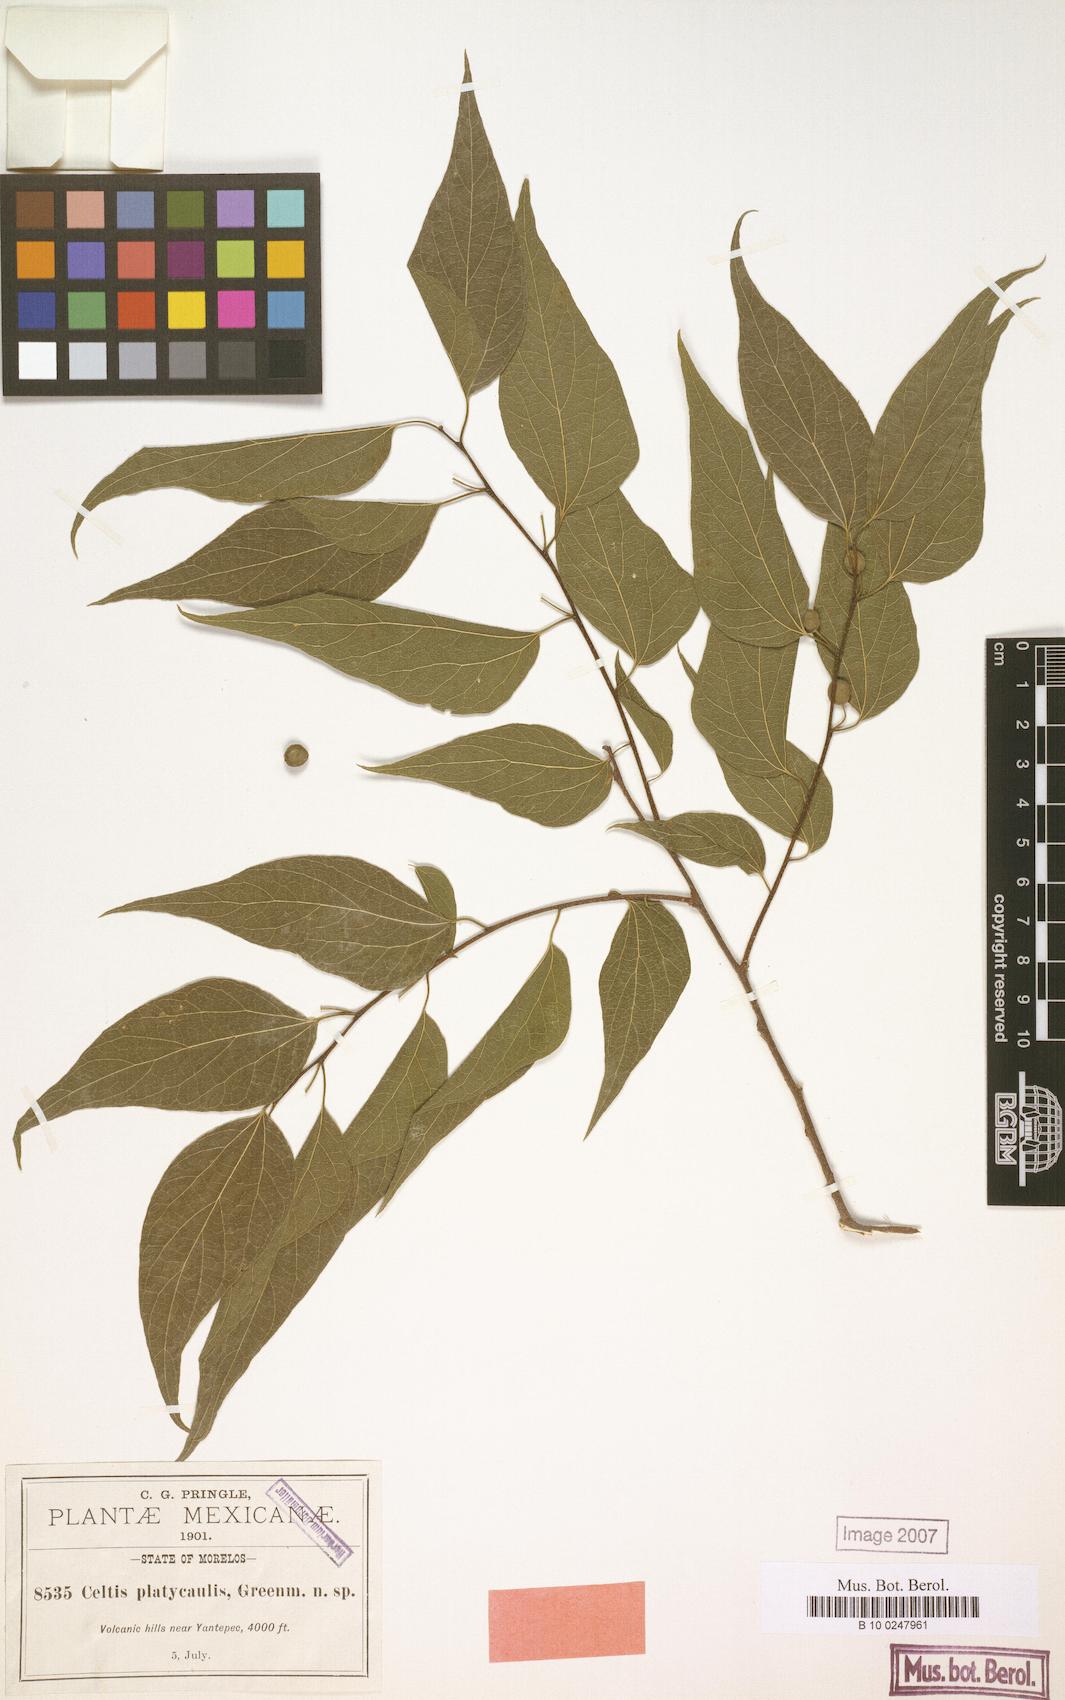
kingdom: Plantae
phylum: Tracheophyta
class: Magnoliopsida
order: Rosales
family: Cannabaceae
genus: Celtis
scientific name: Celtis iguanaea
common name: Iguana hackberry
